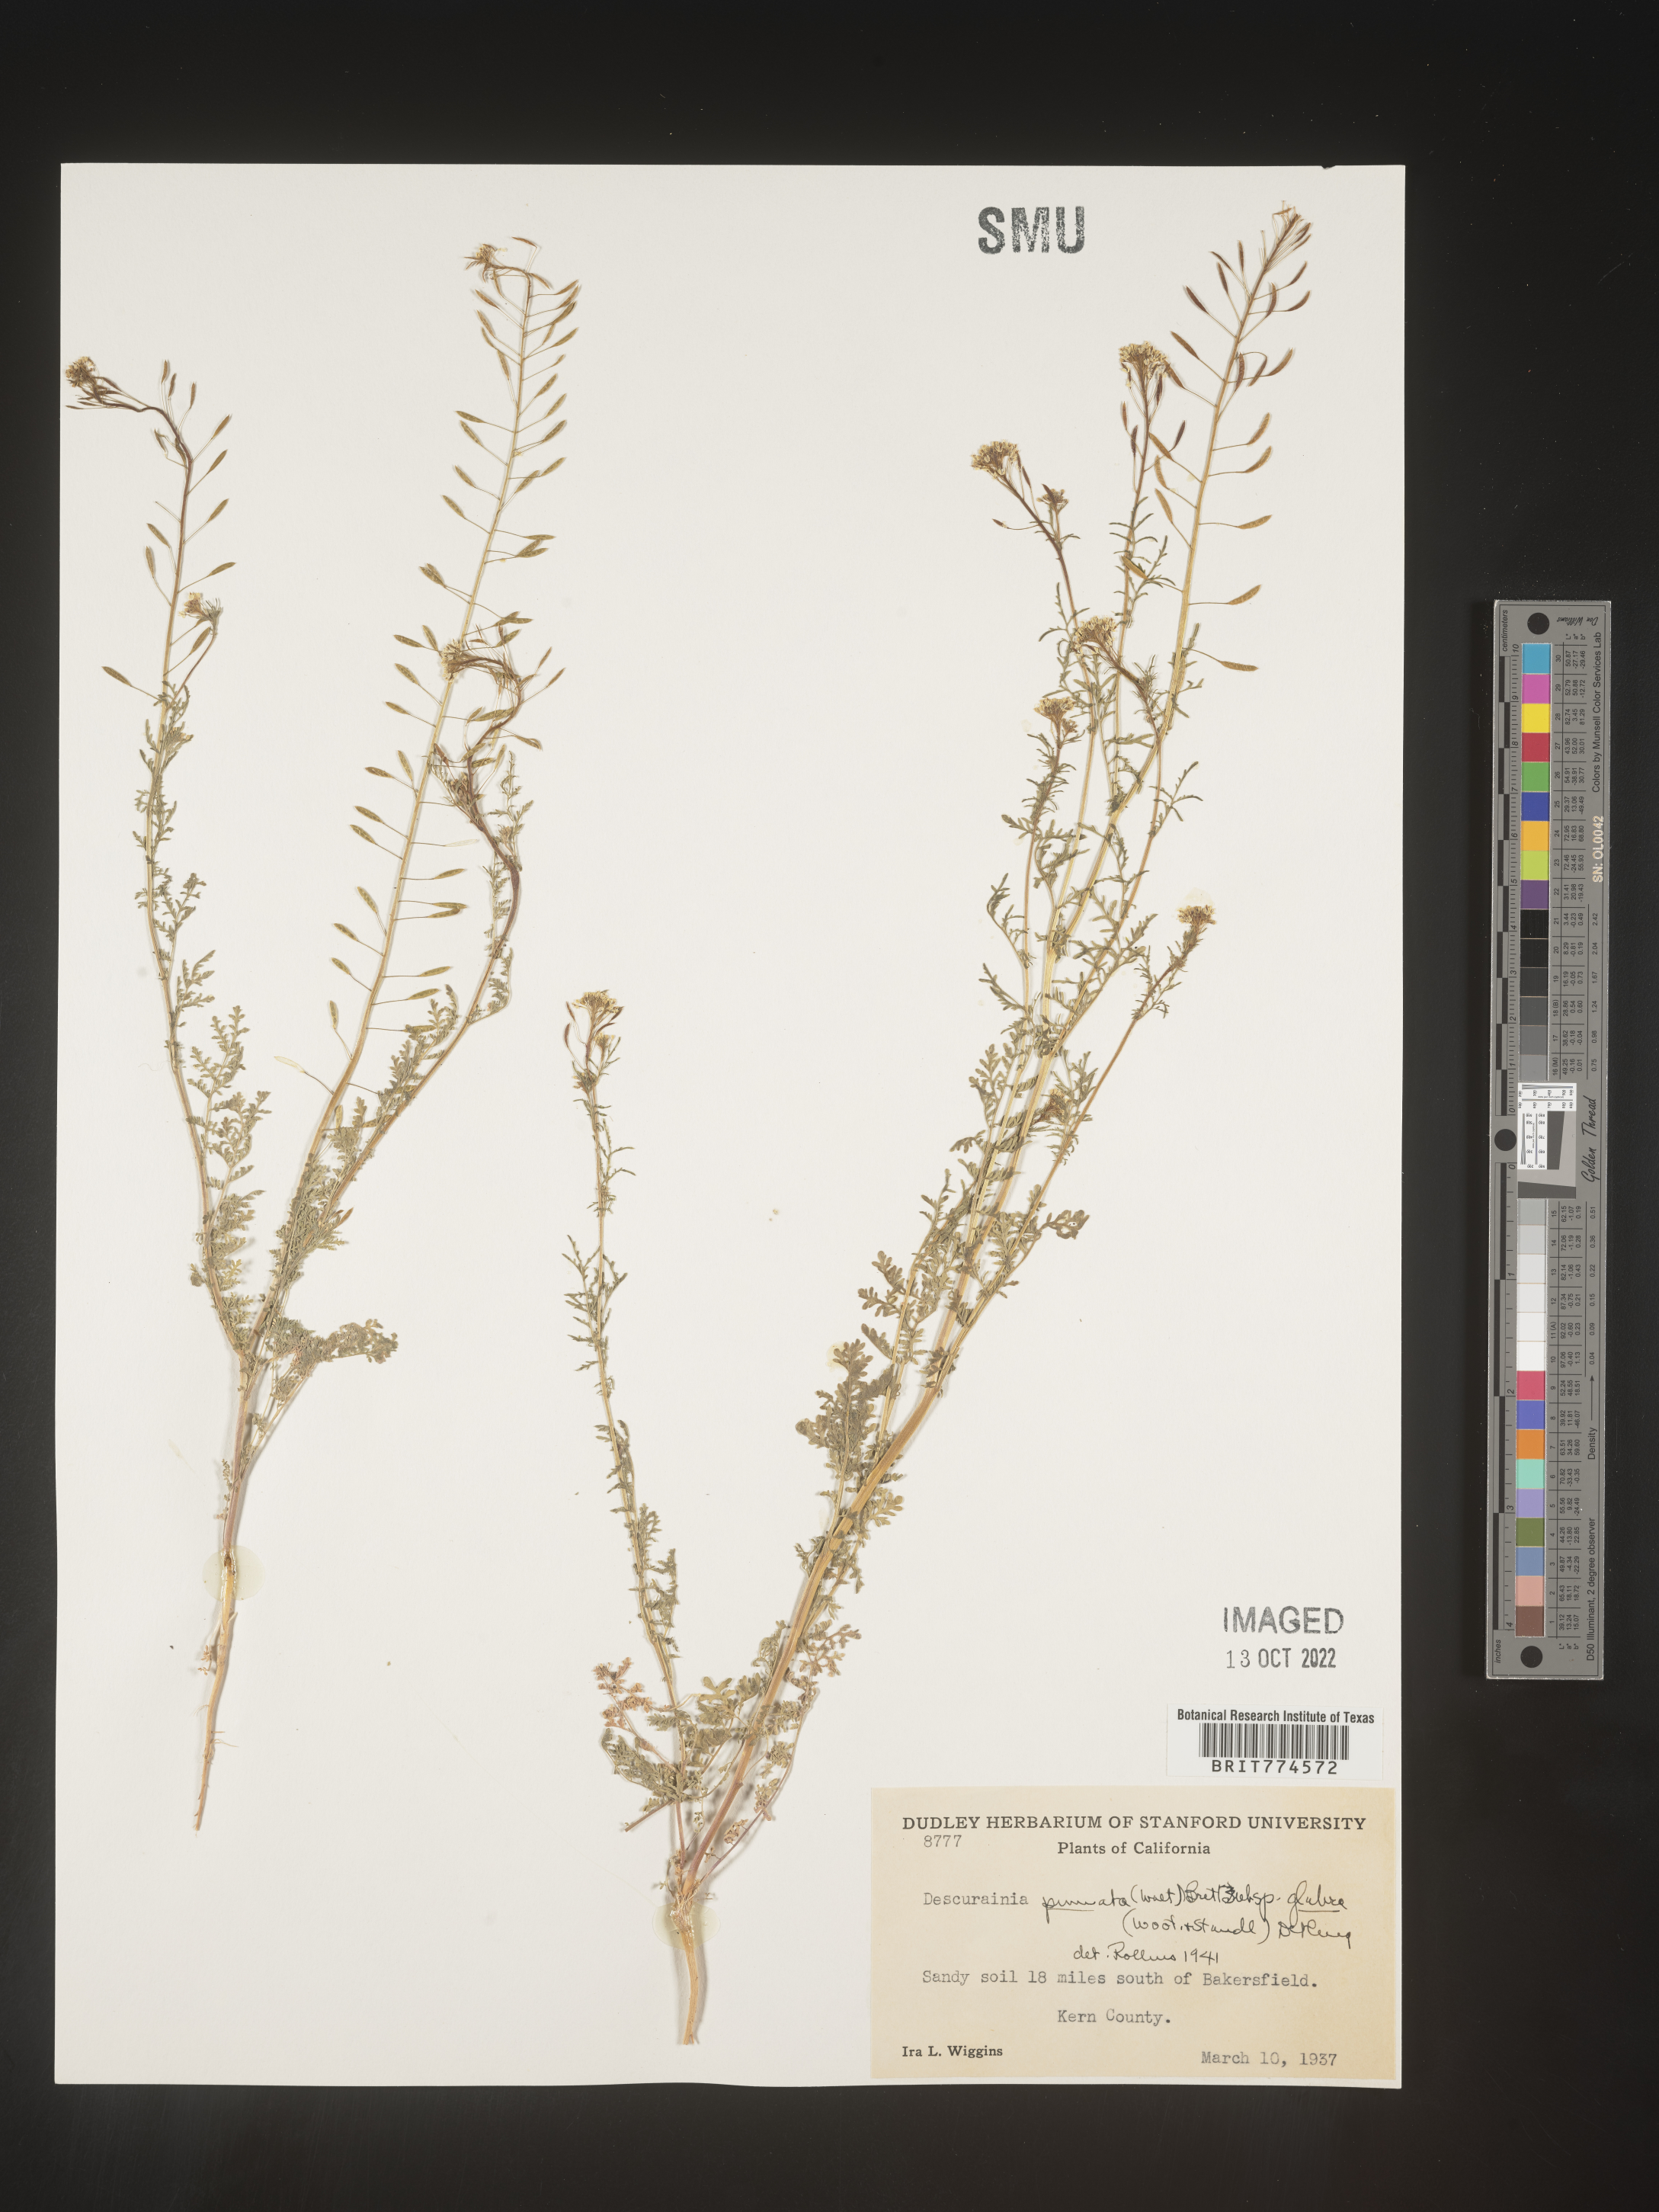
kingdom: Plantae
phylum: Tracheophyta
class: Magnoliopsida
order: Brassicales
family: Brassicaceae
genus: Descurainia
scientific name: Descurainia pinnata
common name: Western tansy mustard
